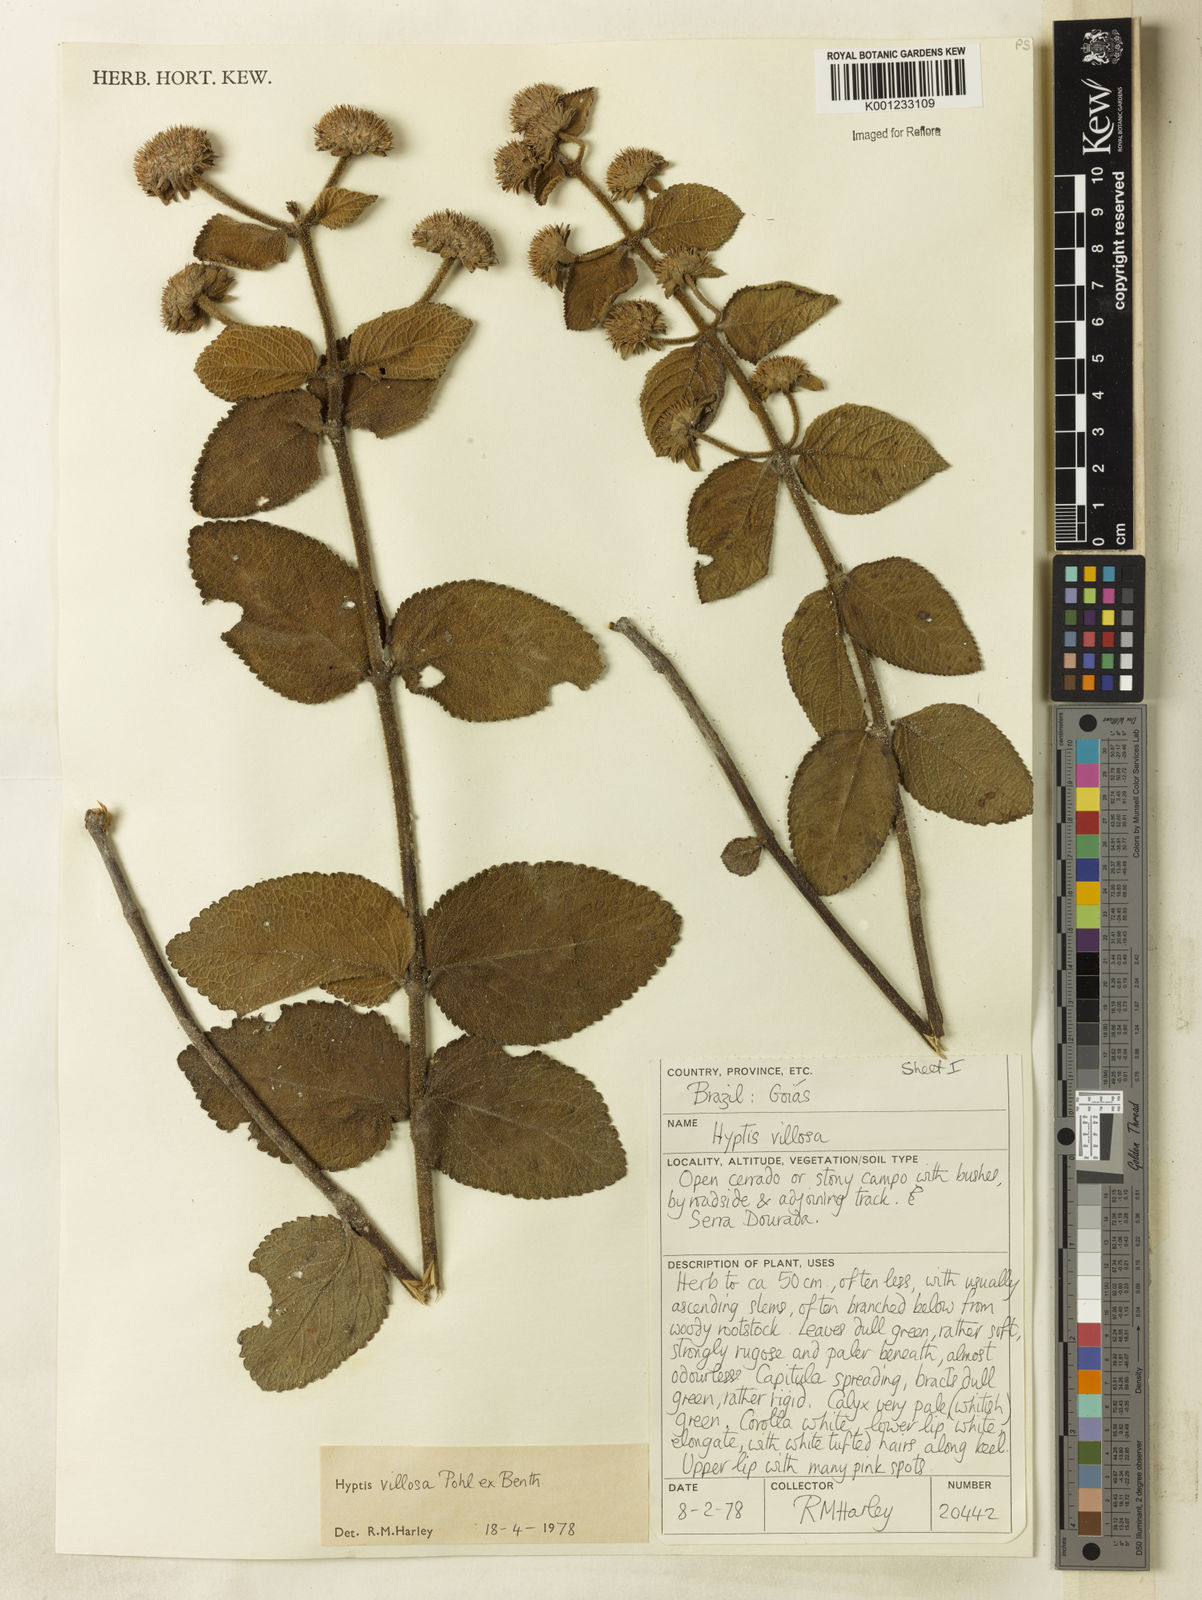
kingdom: Plantae
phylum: Tracheophyta
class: Magnoliopsida
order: Lamiales
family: Lamiaceae
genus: Hyptis
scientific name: Hyptis villosa
